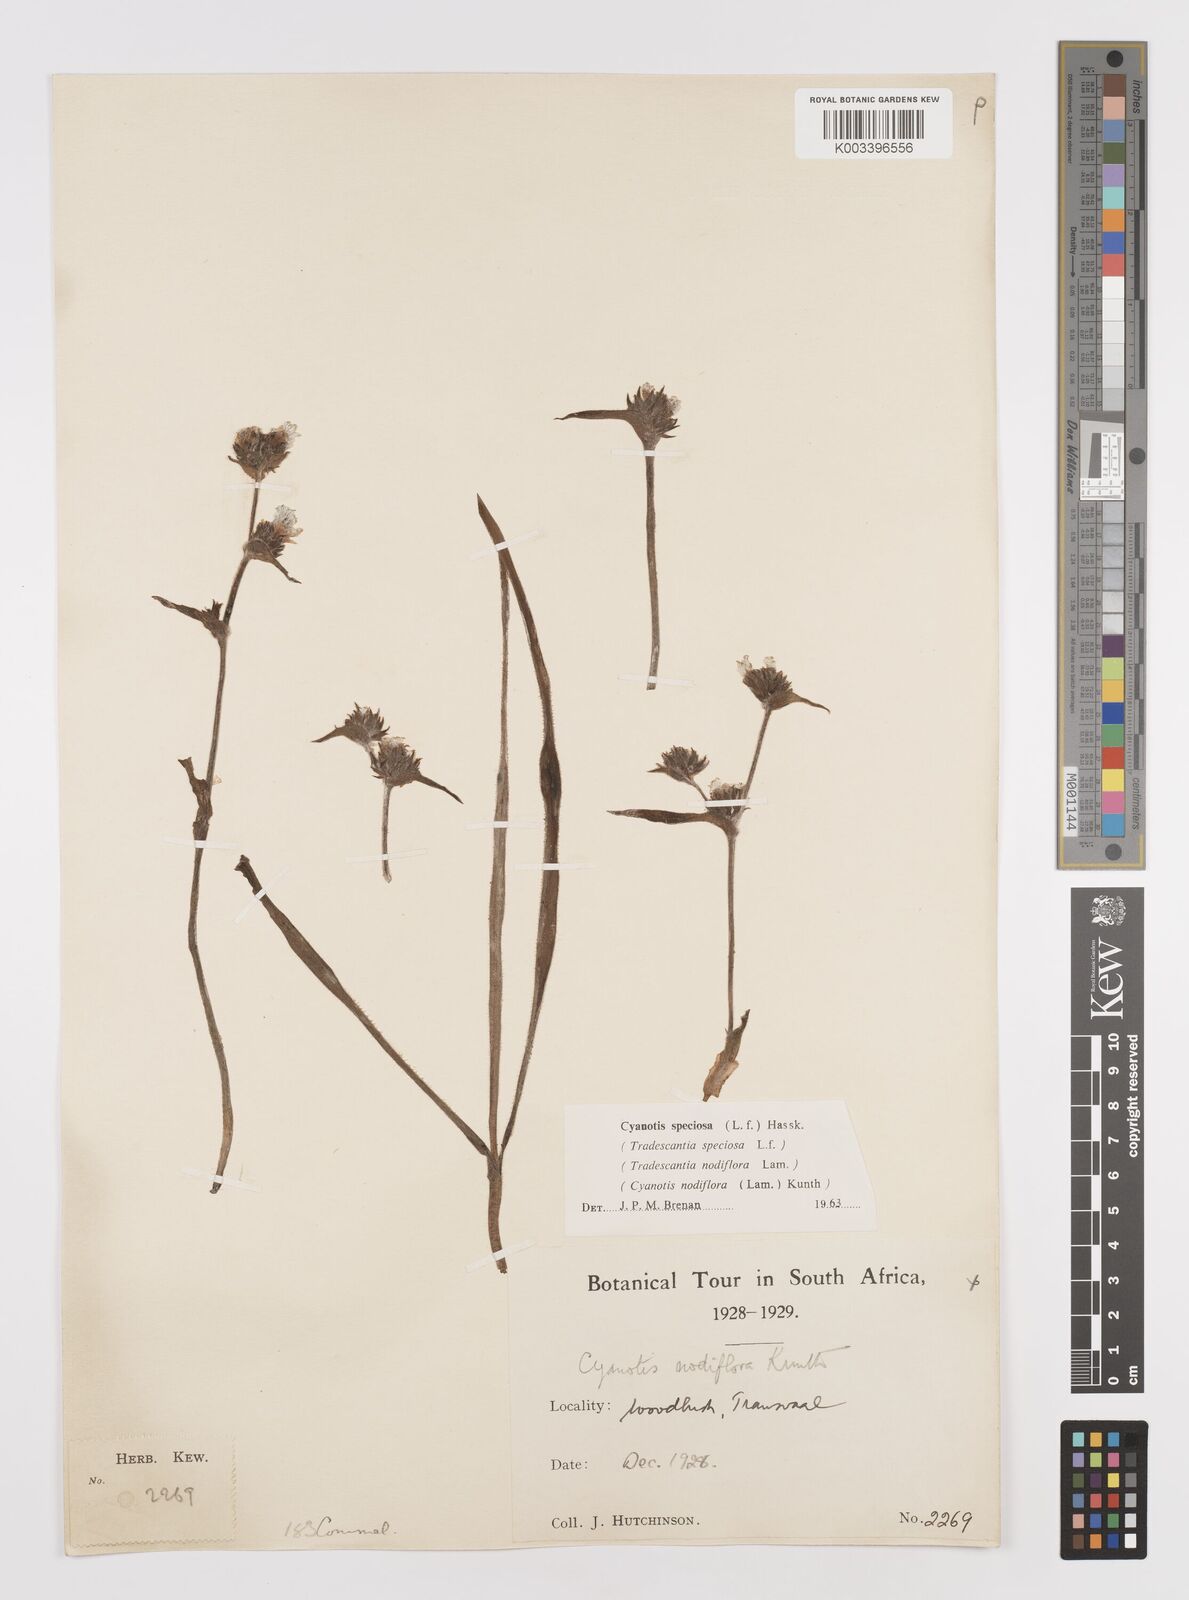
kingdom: Plantae
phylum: Tracheophyta
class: Liliopsida
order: Commelinales
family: Commelinaceae
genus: Cyanotis
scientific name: Cyanotis speciosa
